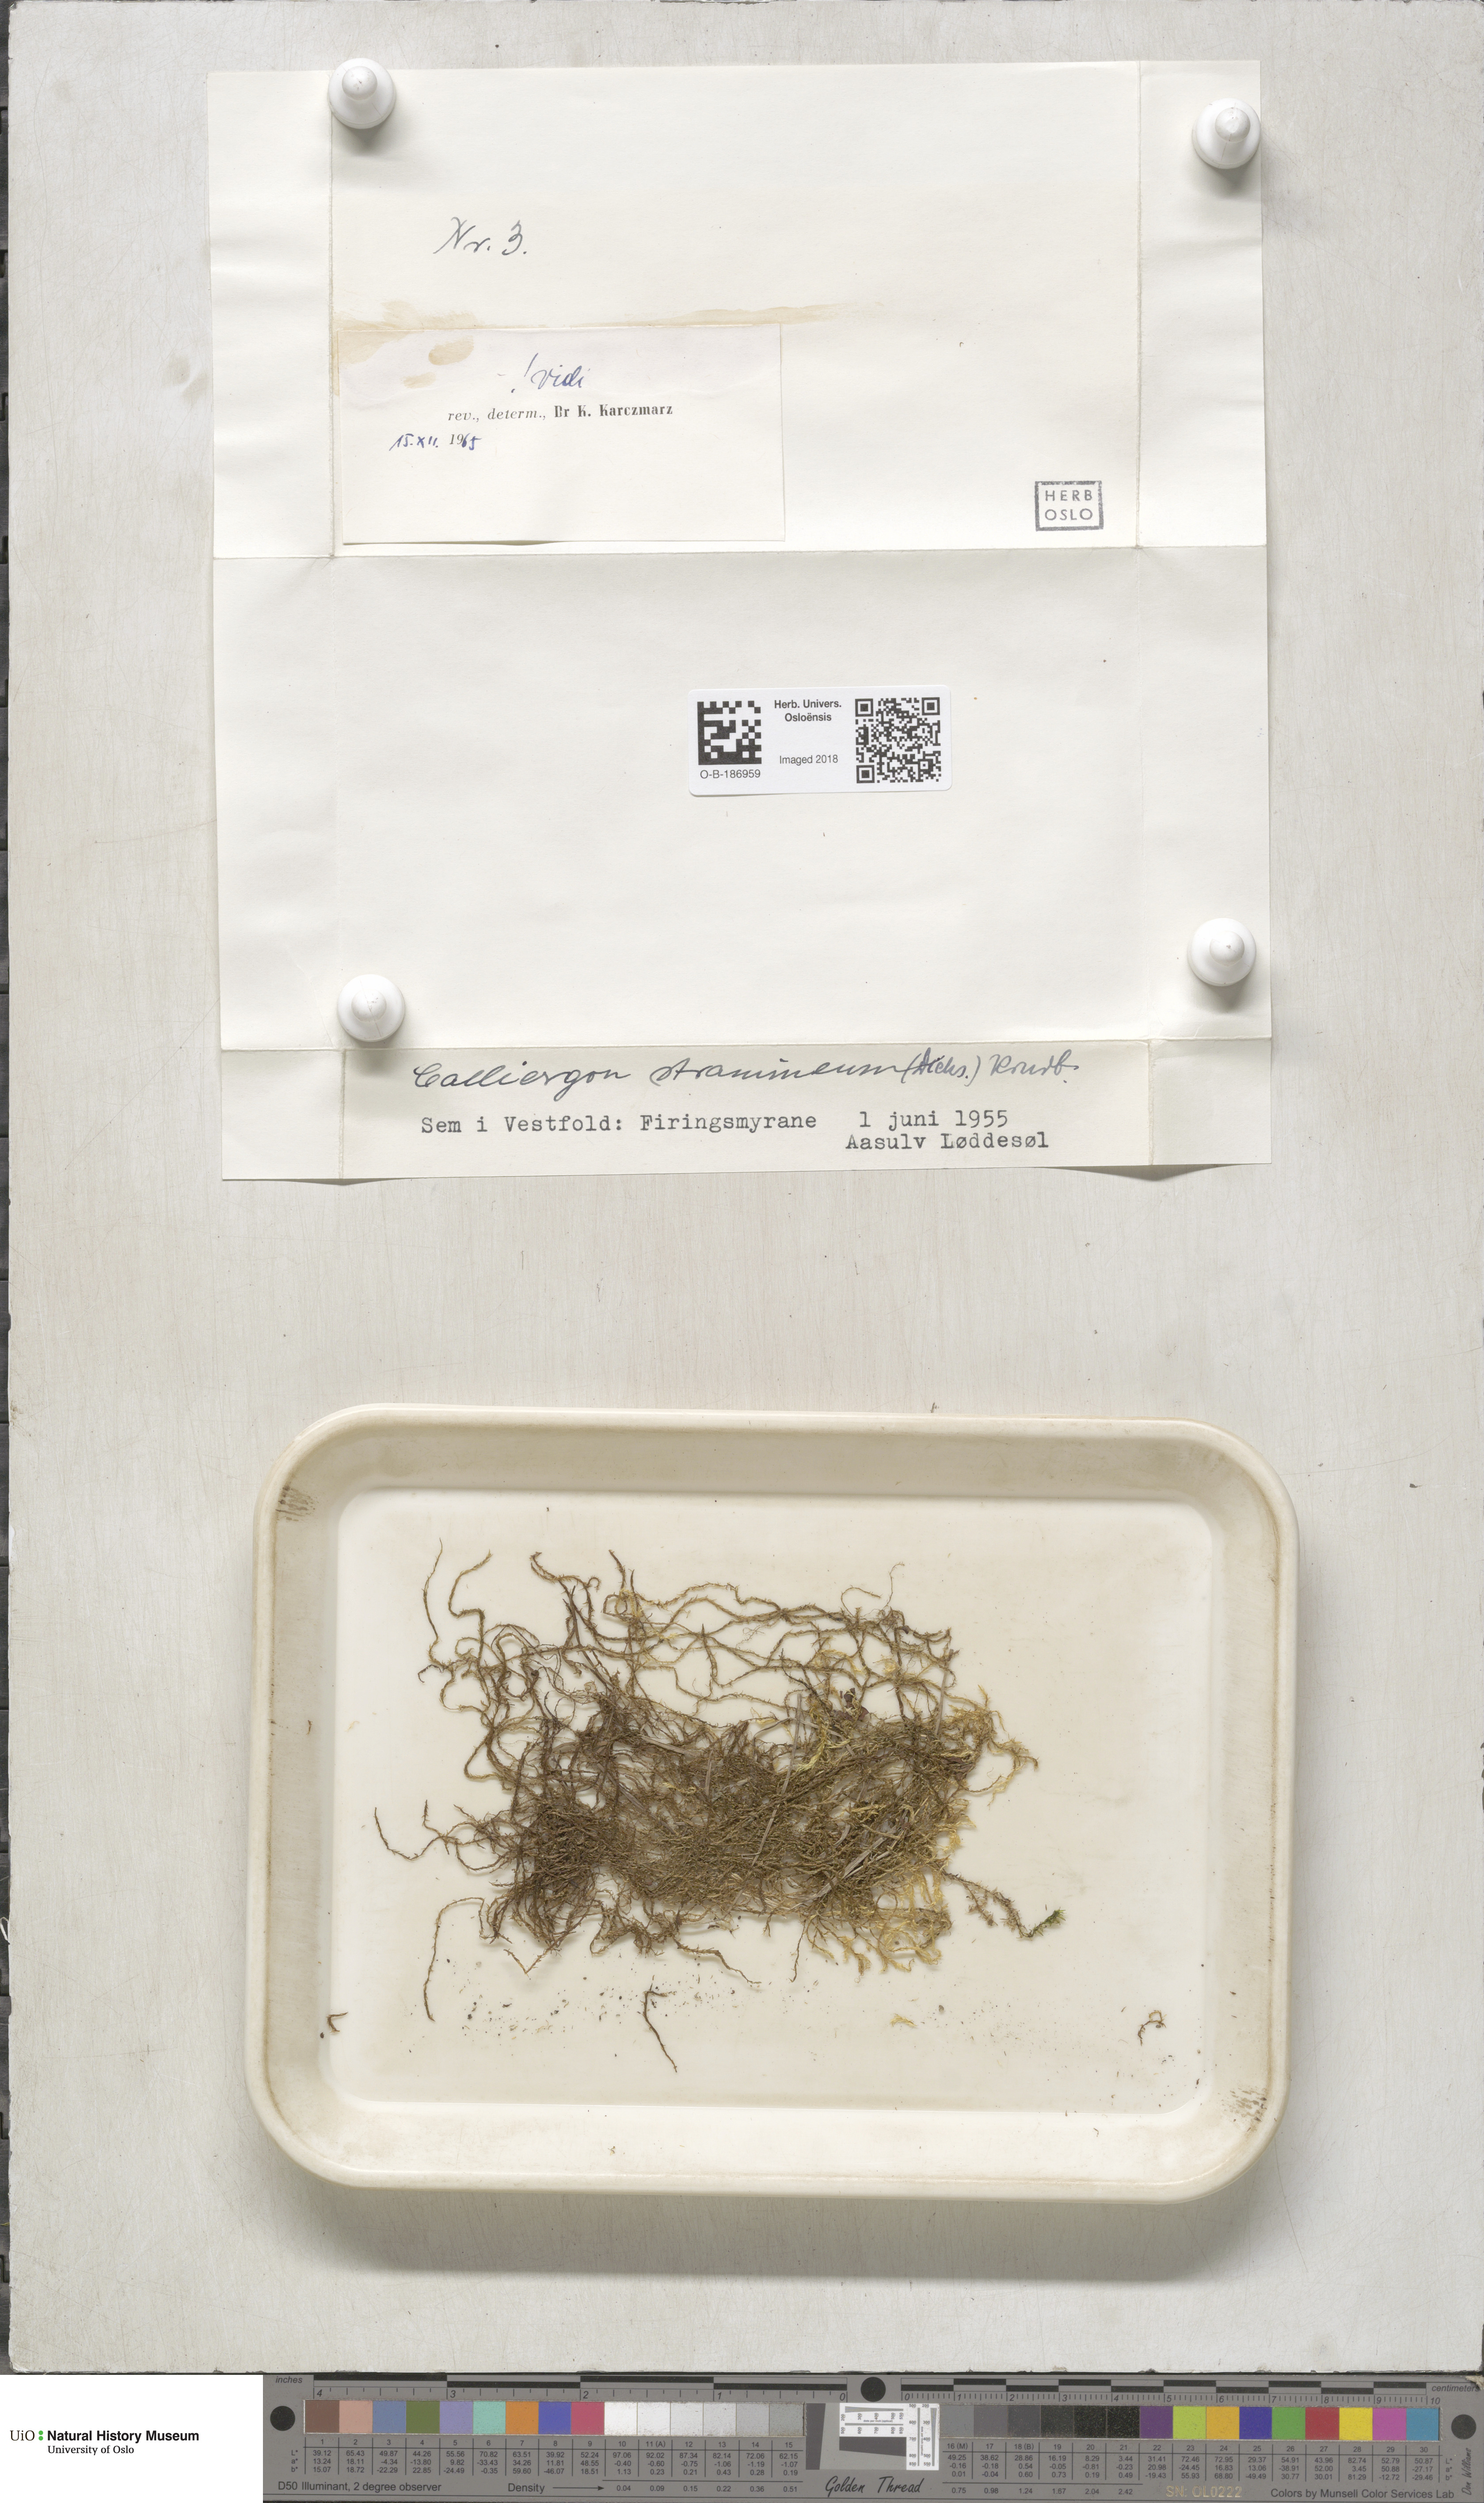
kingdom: Plantae
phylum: Bryophyta
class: Bryopsida
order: Hypnales
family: Calliergonaceae
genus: Straminergon
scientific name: Straminergon stramineum
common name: Straw moss
